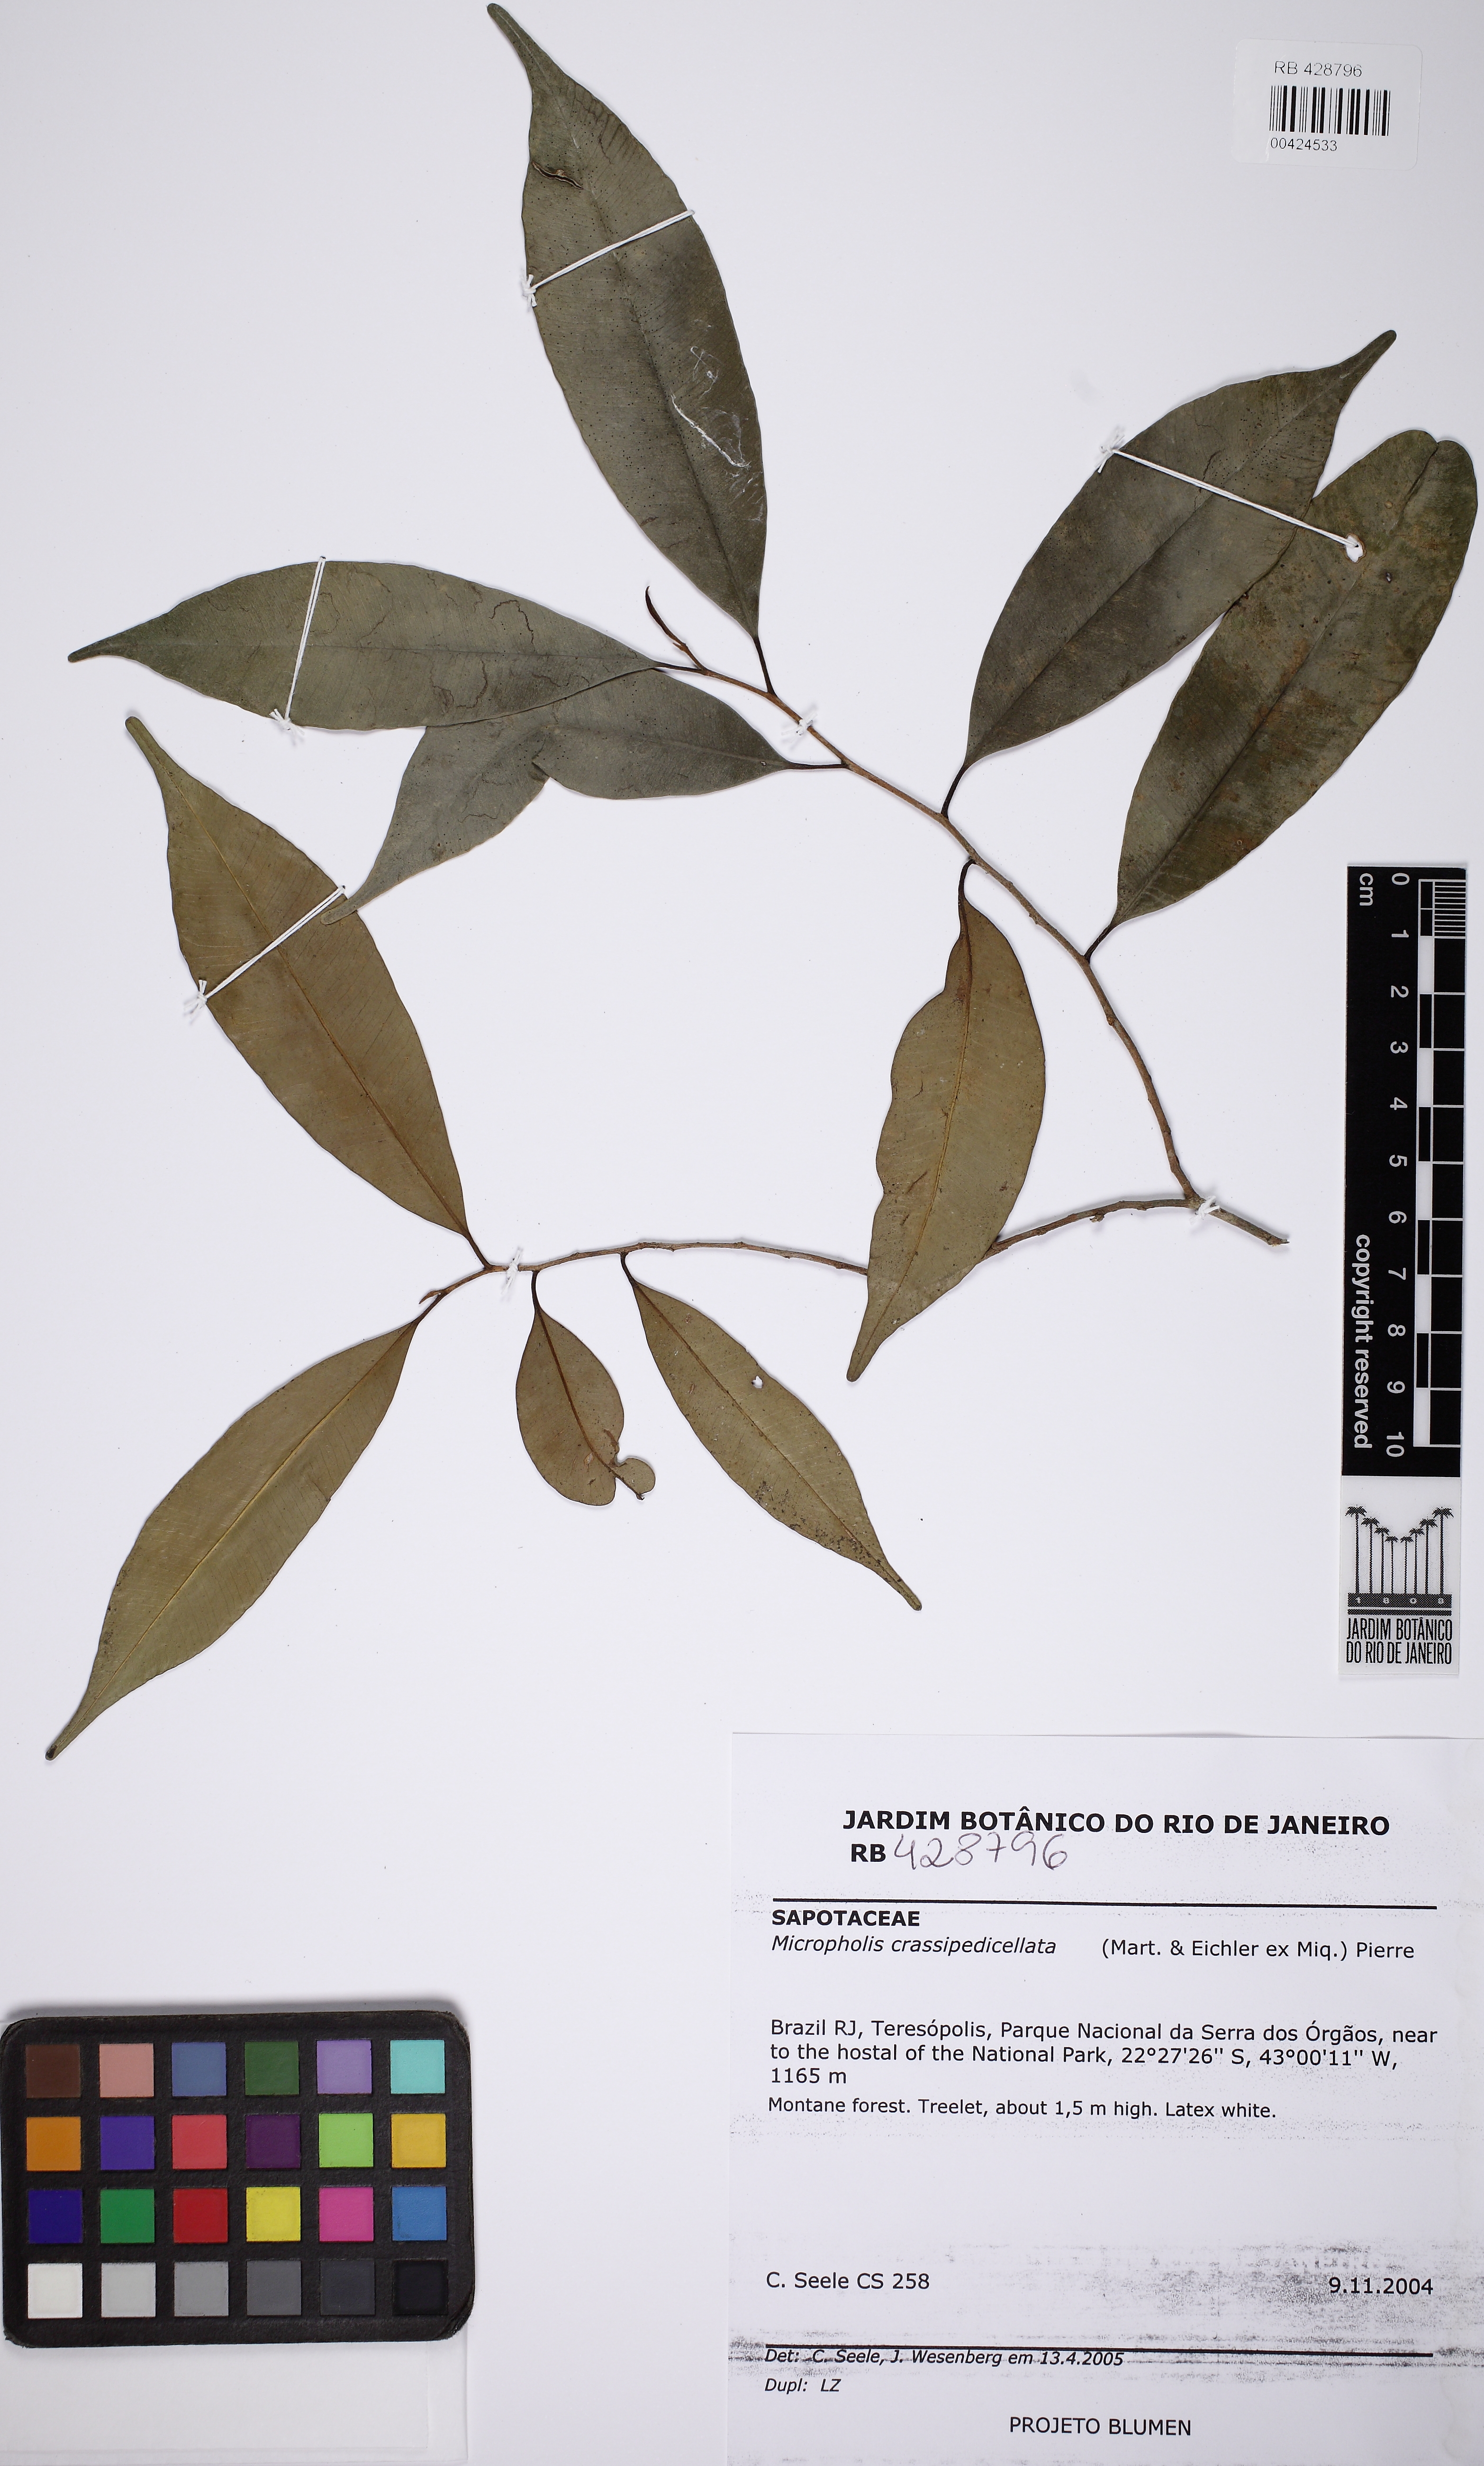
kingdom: Plantae
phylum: Tracheophyta
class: Magnoliopsida
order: Ericales
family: Sapotaceae
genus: Micropholis
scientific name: Micropholis crassipedicellata
